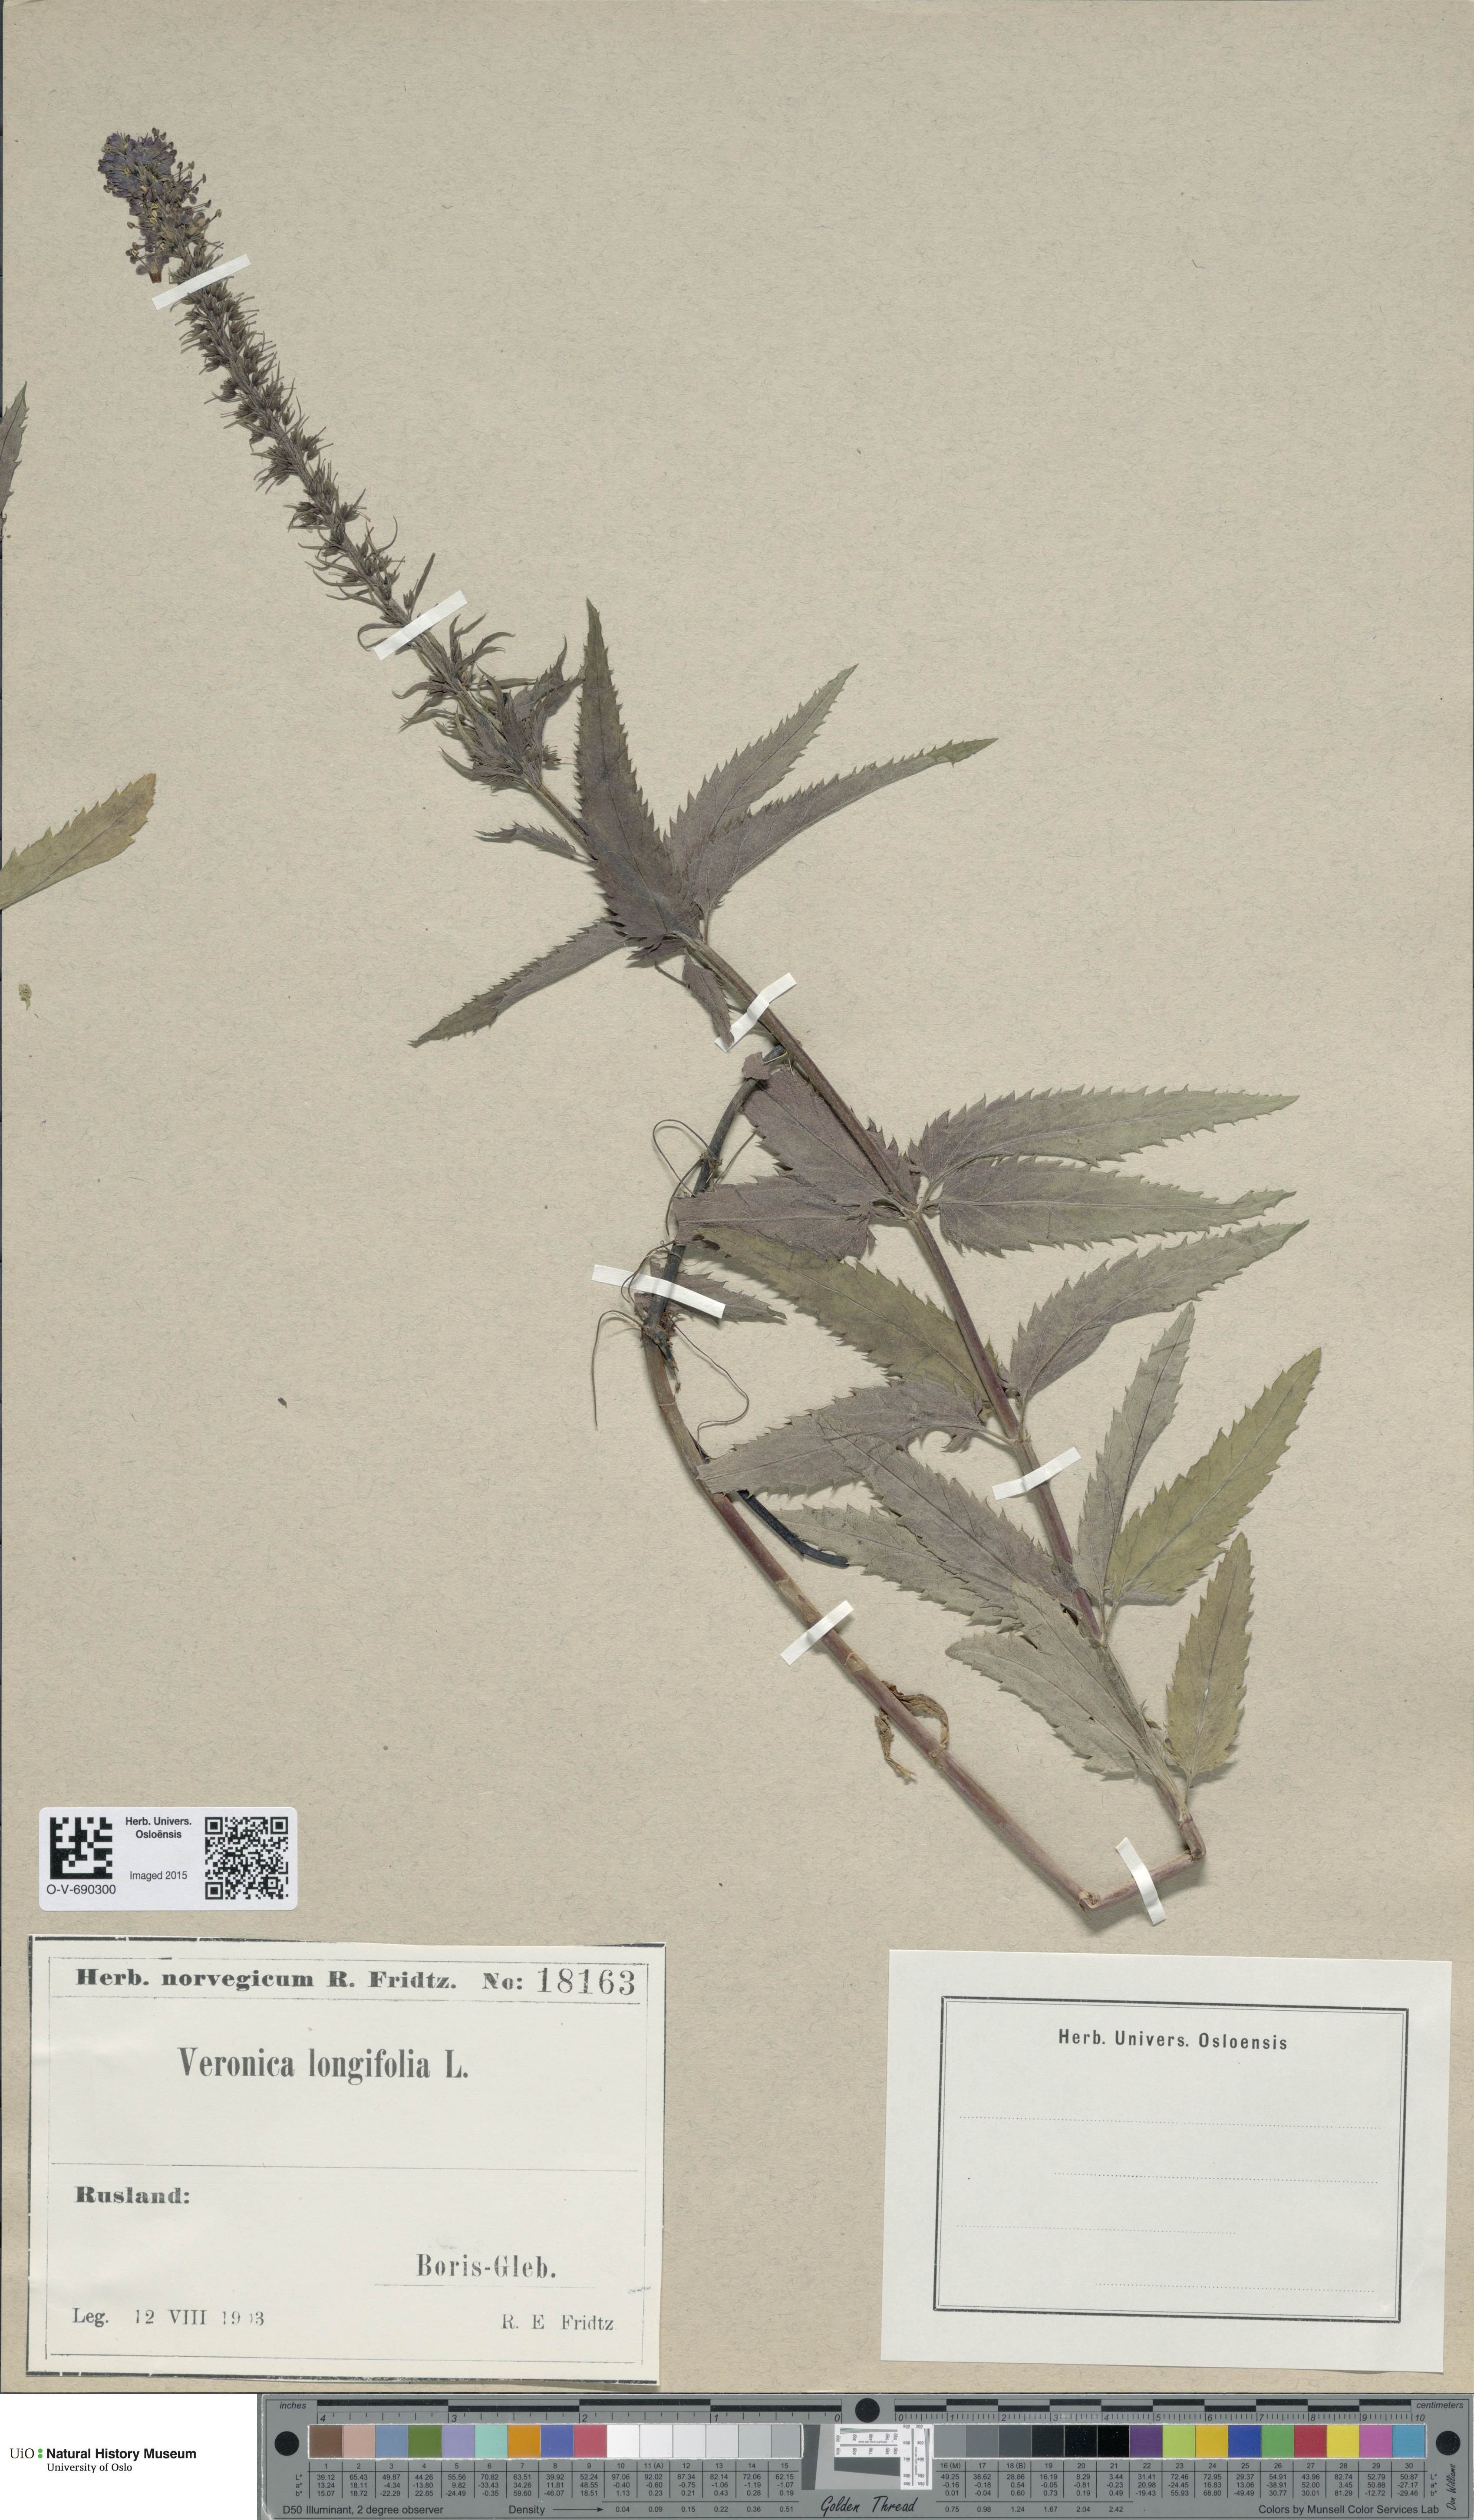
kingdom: Plantae
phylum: Tracheophyta
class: Magnoliopsida
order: Lamiales
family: Plantaginaceae
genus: Veronica
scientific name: Veronica longifolia
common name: Garden speedwell
